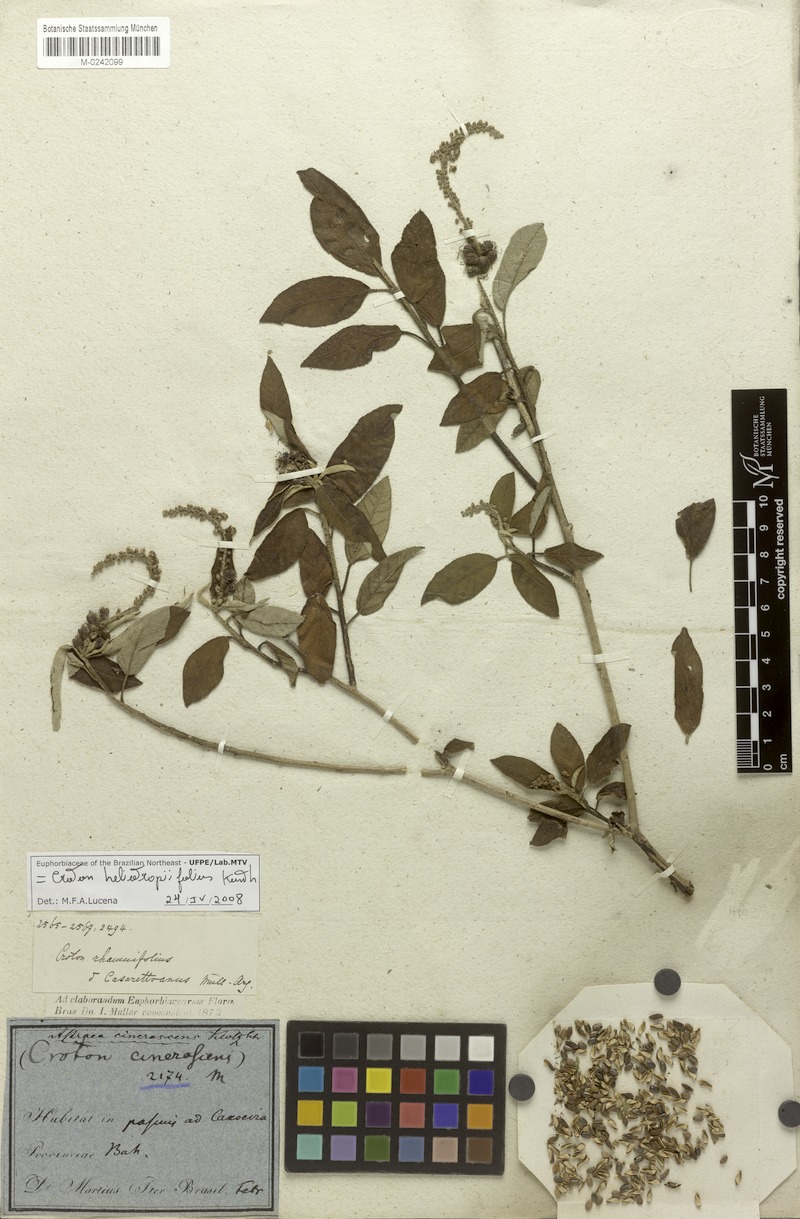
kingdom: Plantae
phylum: Tracheophyta
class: Magnoliopsida
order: Malpighiales
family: Euphorbiaceae
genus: Croton
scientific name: Croton heliotropiifolius
